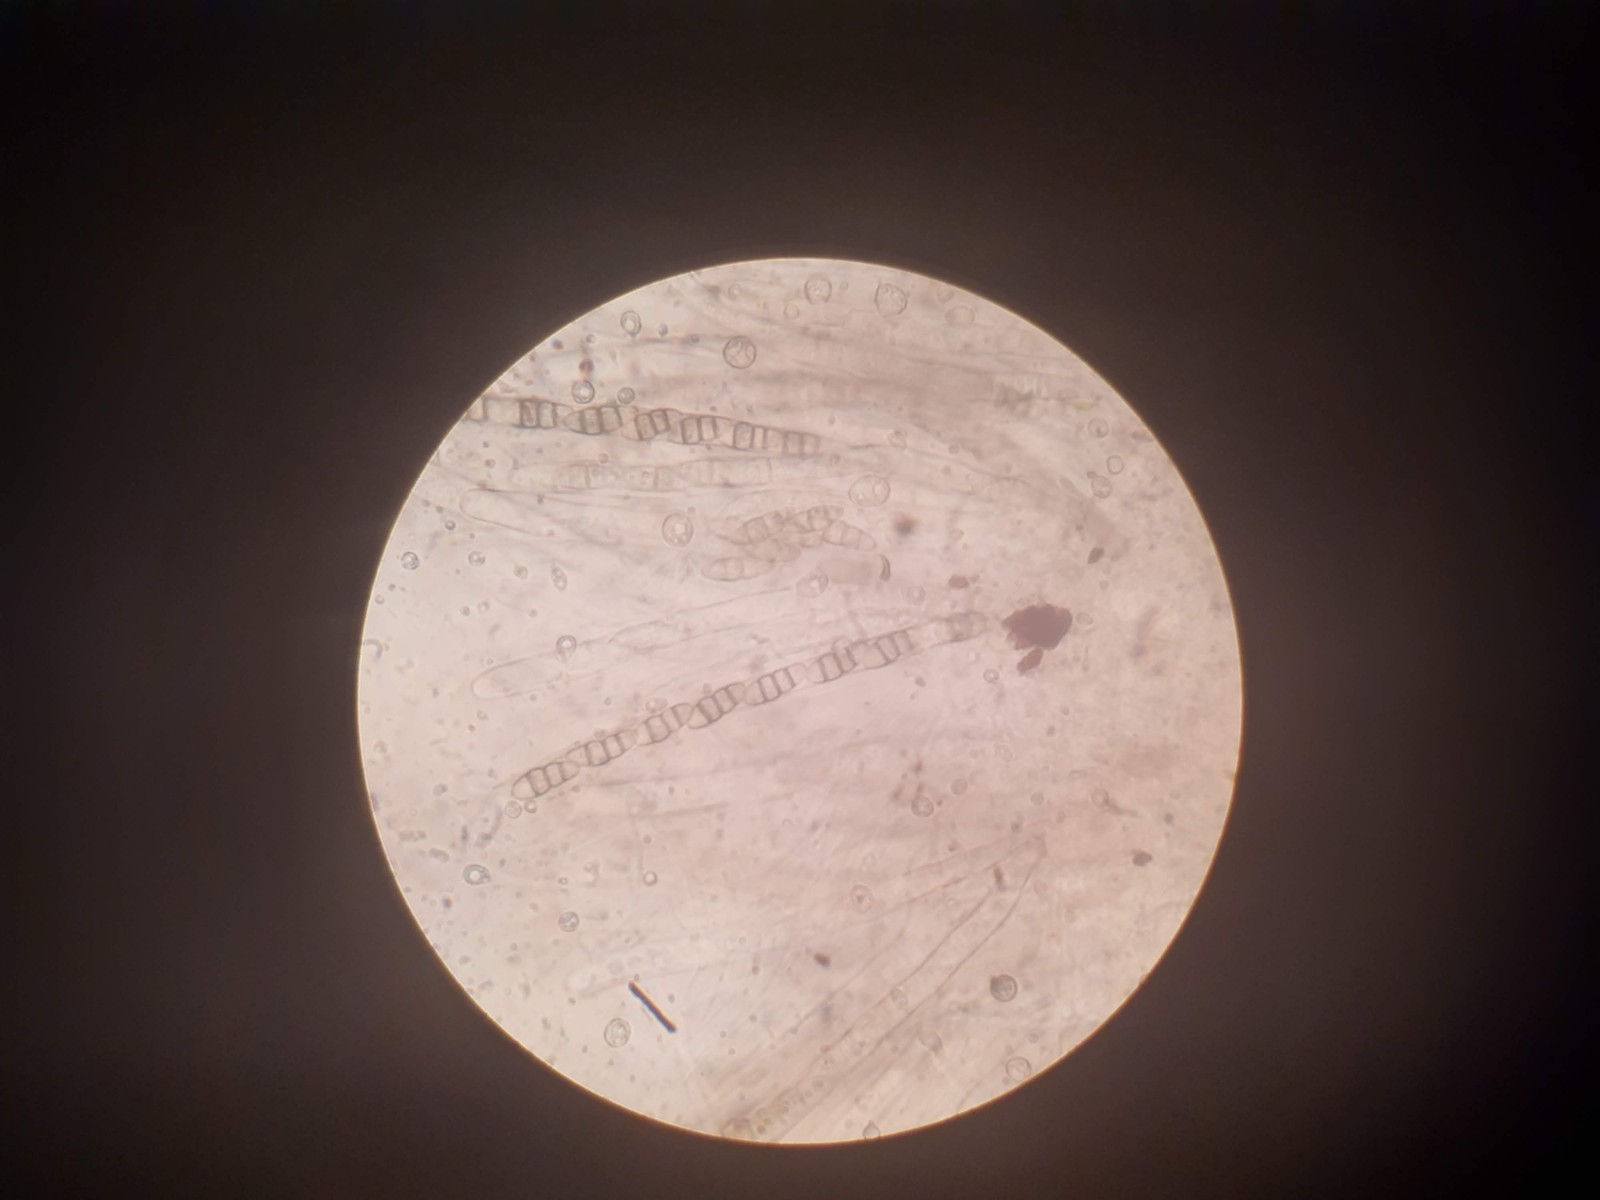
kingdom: Fungi
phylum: Ascomycota
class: Dothideomycetes
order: Pleosporales
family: Melanommataceae
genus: Melanomma
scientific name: Melanomma pulvis-pyrius
